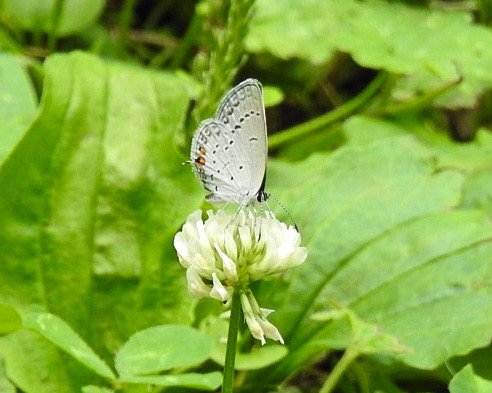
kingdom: Animalia
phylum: Arthropoda
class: Insecta
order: Lepidoptera
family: Lycaenidae
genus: Elkalyce
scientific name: Elkalyce comyntas
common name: Eastern Tailed-Blue
